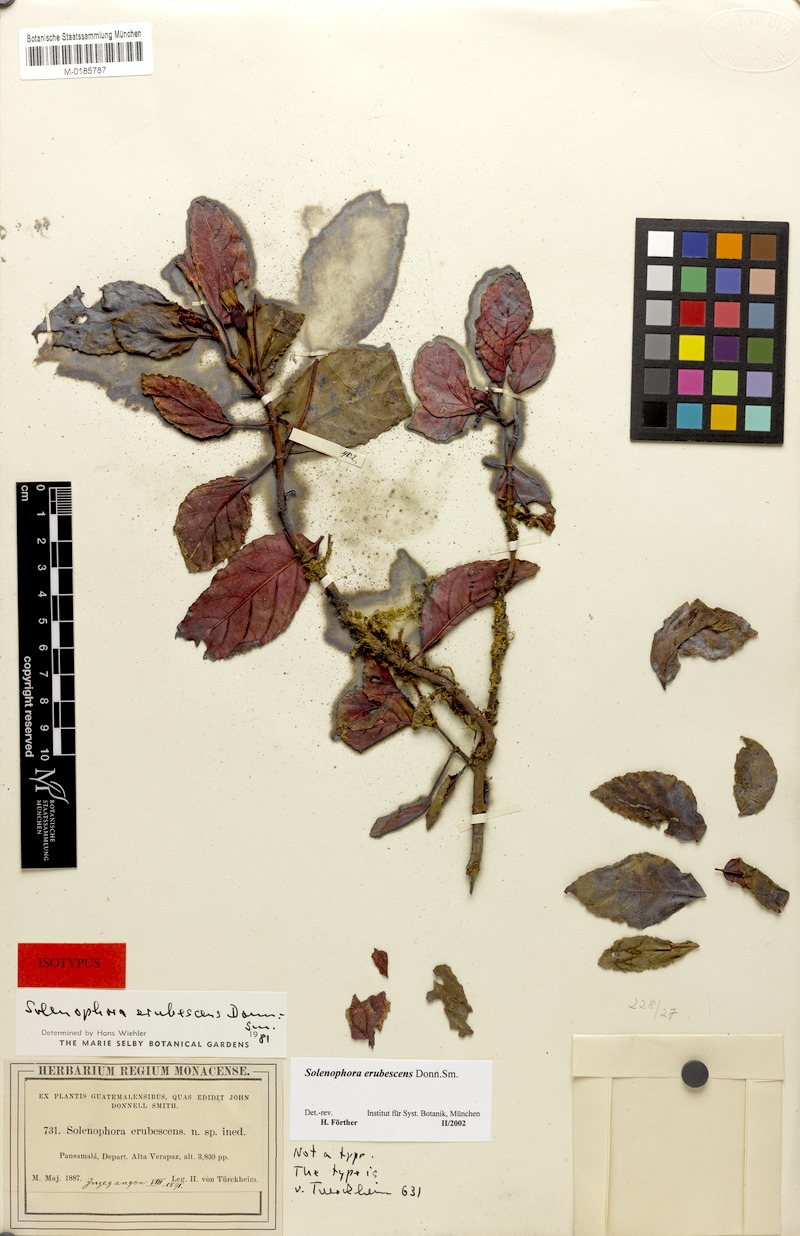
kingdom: Plantae
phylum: Tracheophyta
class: Magnoliopsida
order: Lamiales
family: Gesneriaceae
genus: Solenophora
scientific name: Solenophora erubescens
